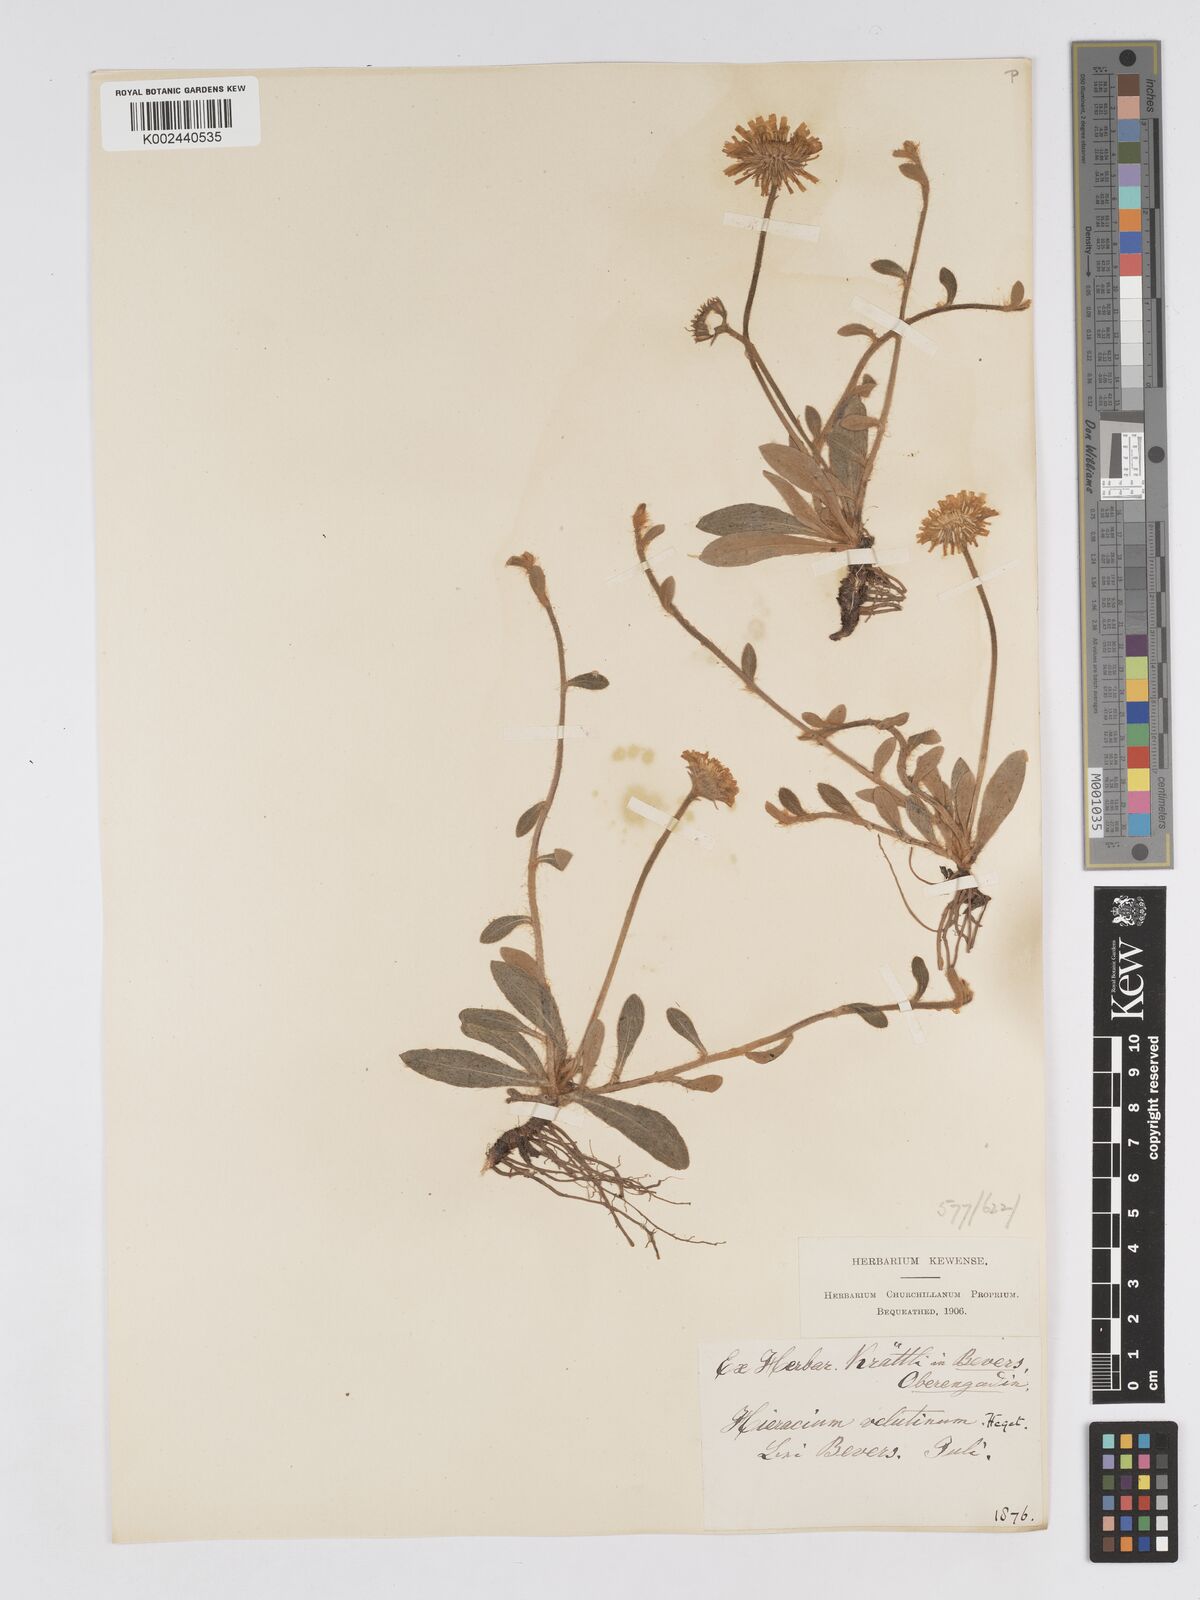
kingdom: Plantae
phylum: Tracheophyta
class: Magnoliopsida
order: Asterales
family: Asteraceae
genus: Pilosella
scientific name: Pilosella velutina
